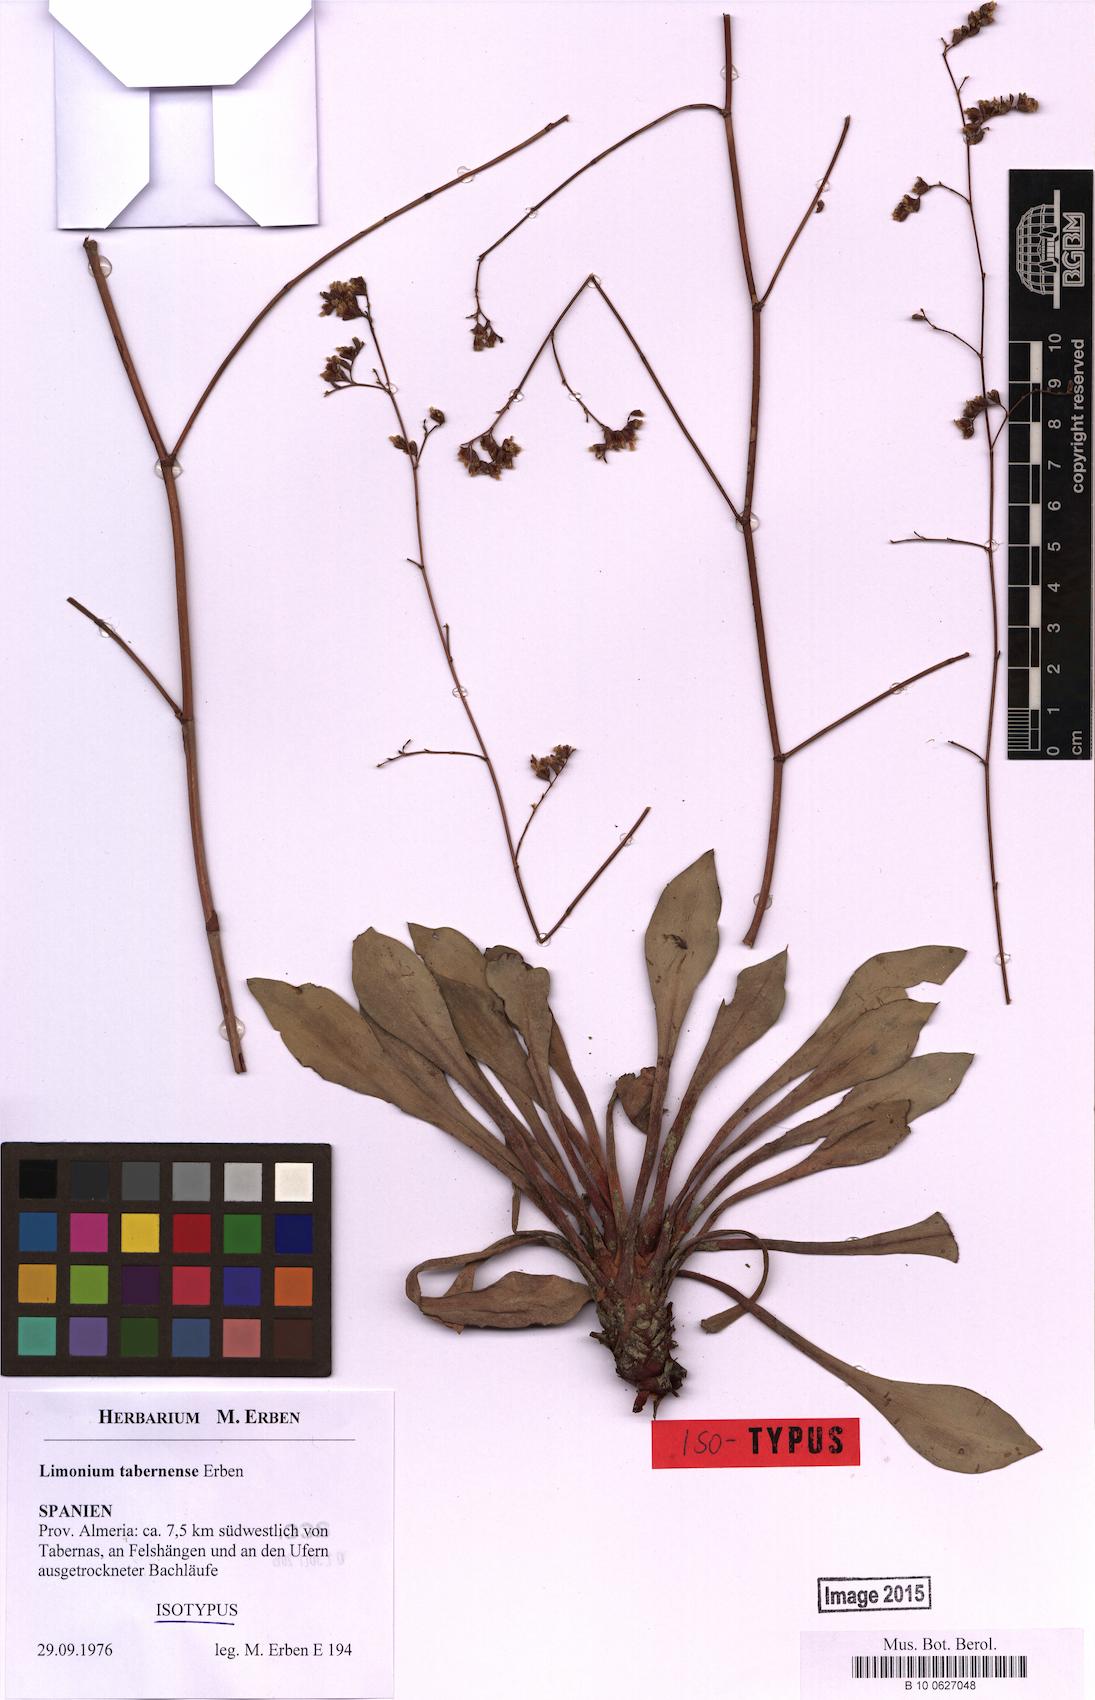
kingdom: Plantae
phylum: Tracheophyta
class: Magnoliopsida
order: Caryophyllales
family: Plumbaginaceae
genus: Limonium
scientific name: Limonium tabernense
